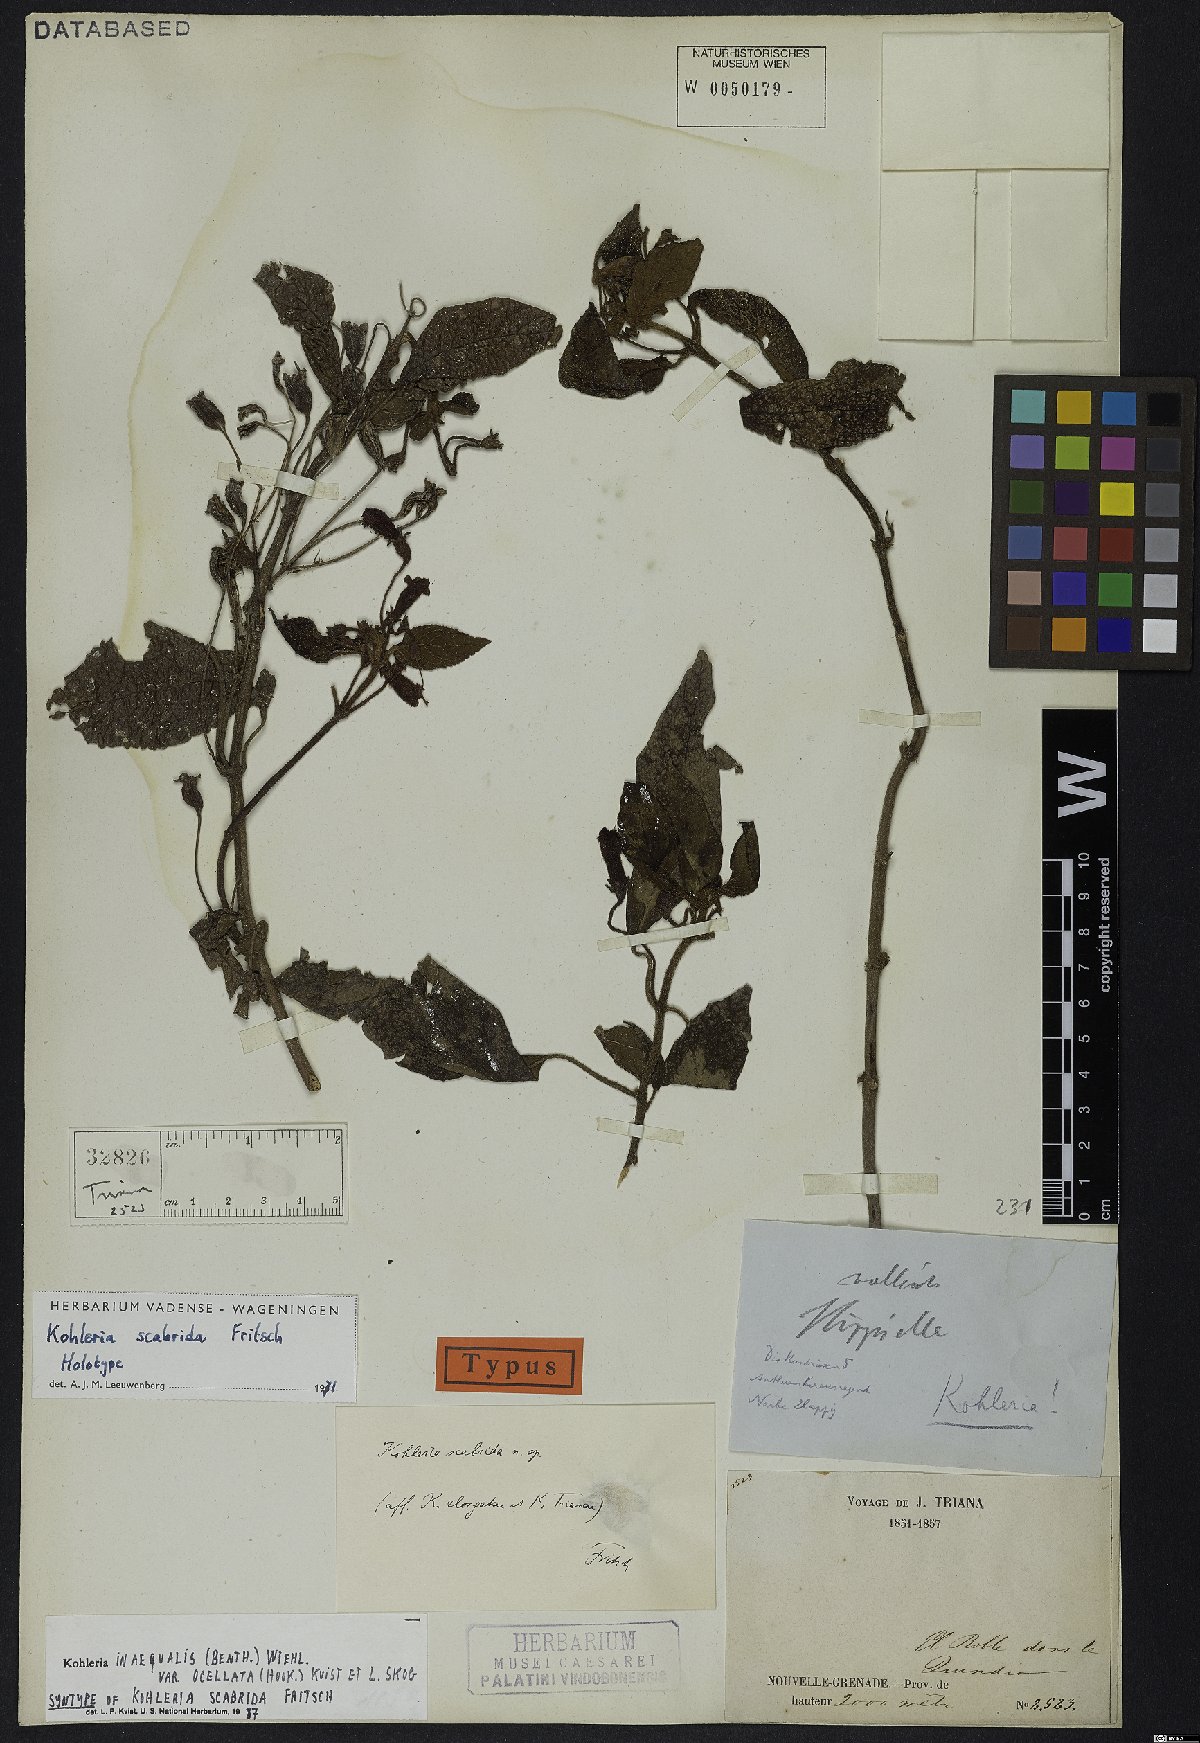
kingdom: Plantae
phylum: Tracheophyta
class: Magnoliopsida
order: Lamiales
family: Gesneriaceae
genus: Kohleria
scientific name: Kohleria inaequalis
